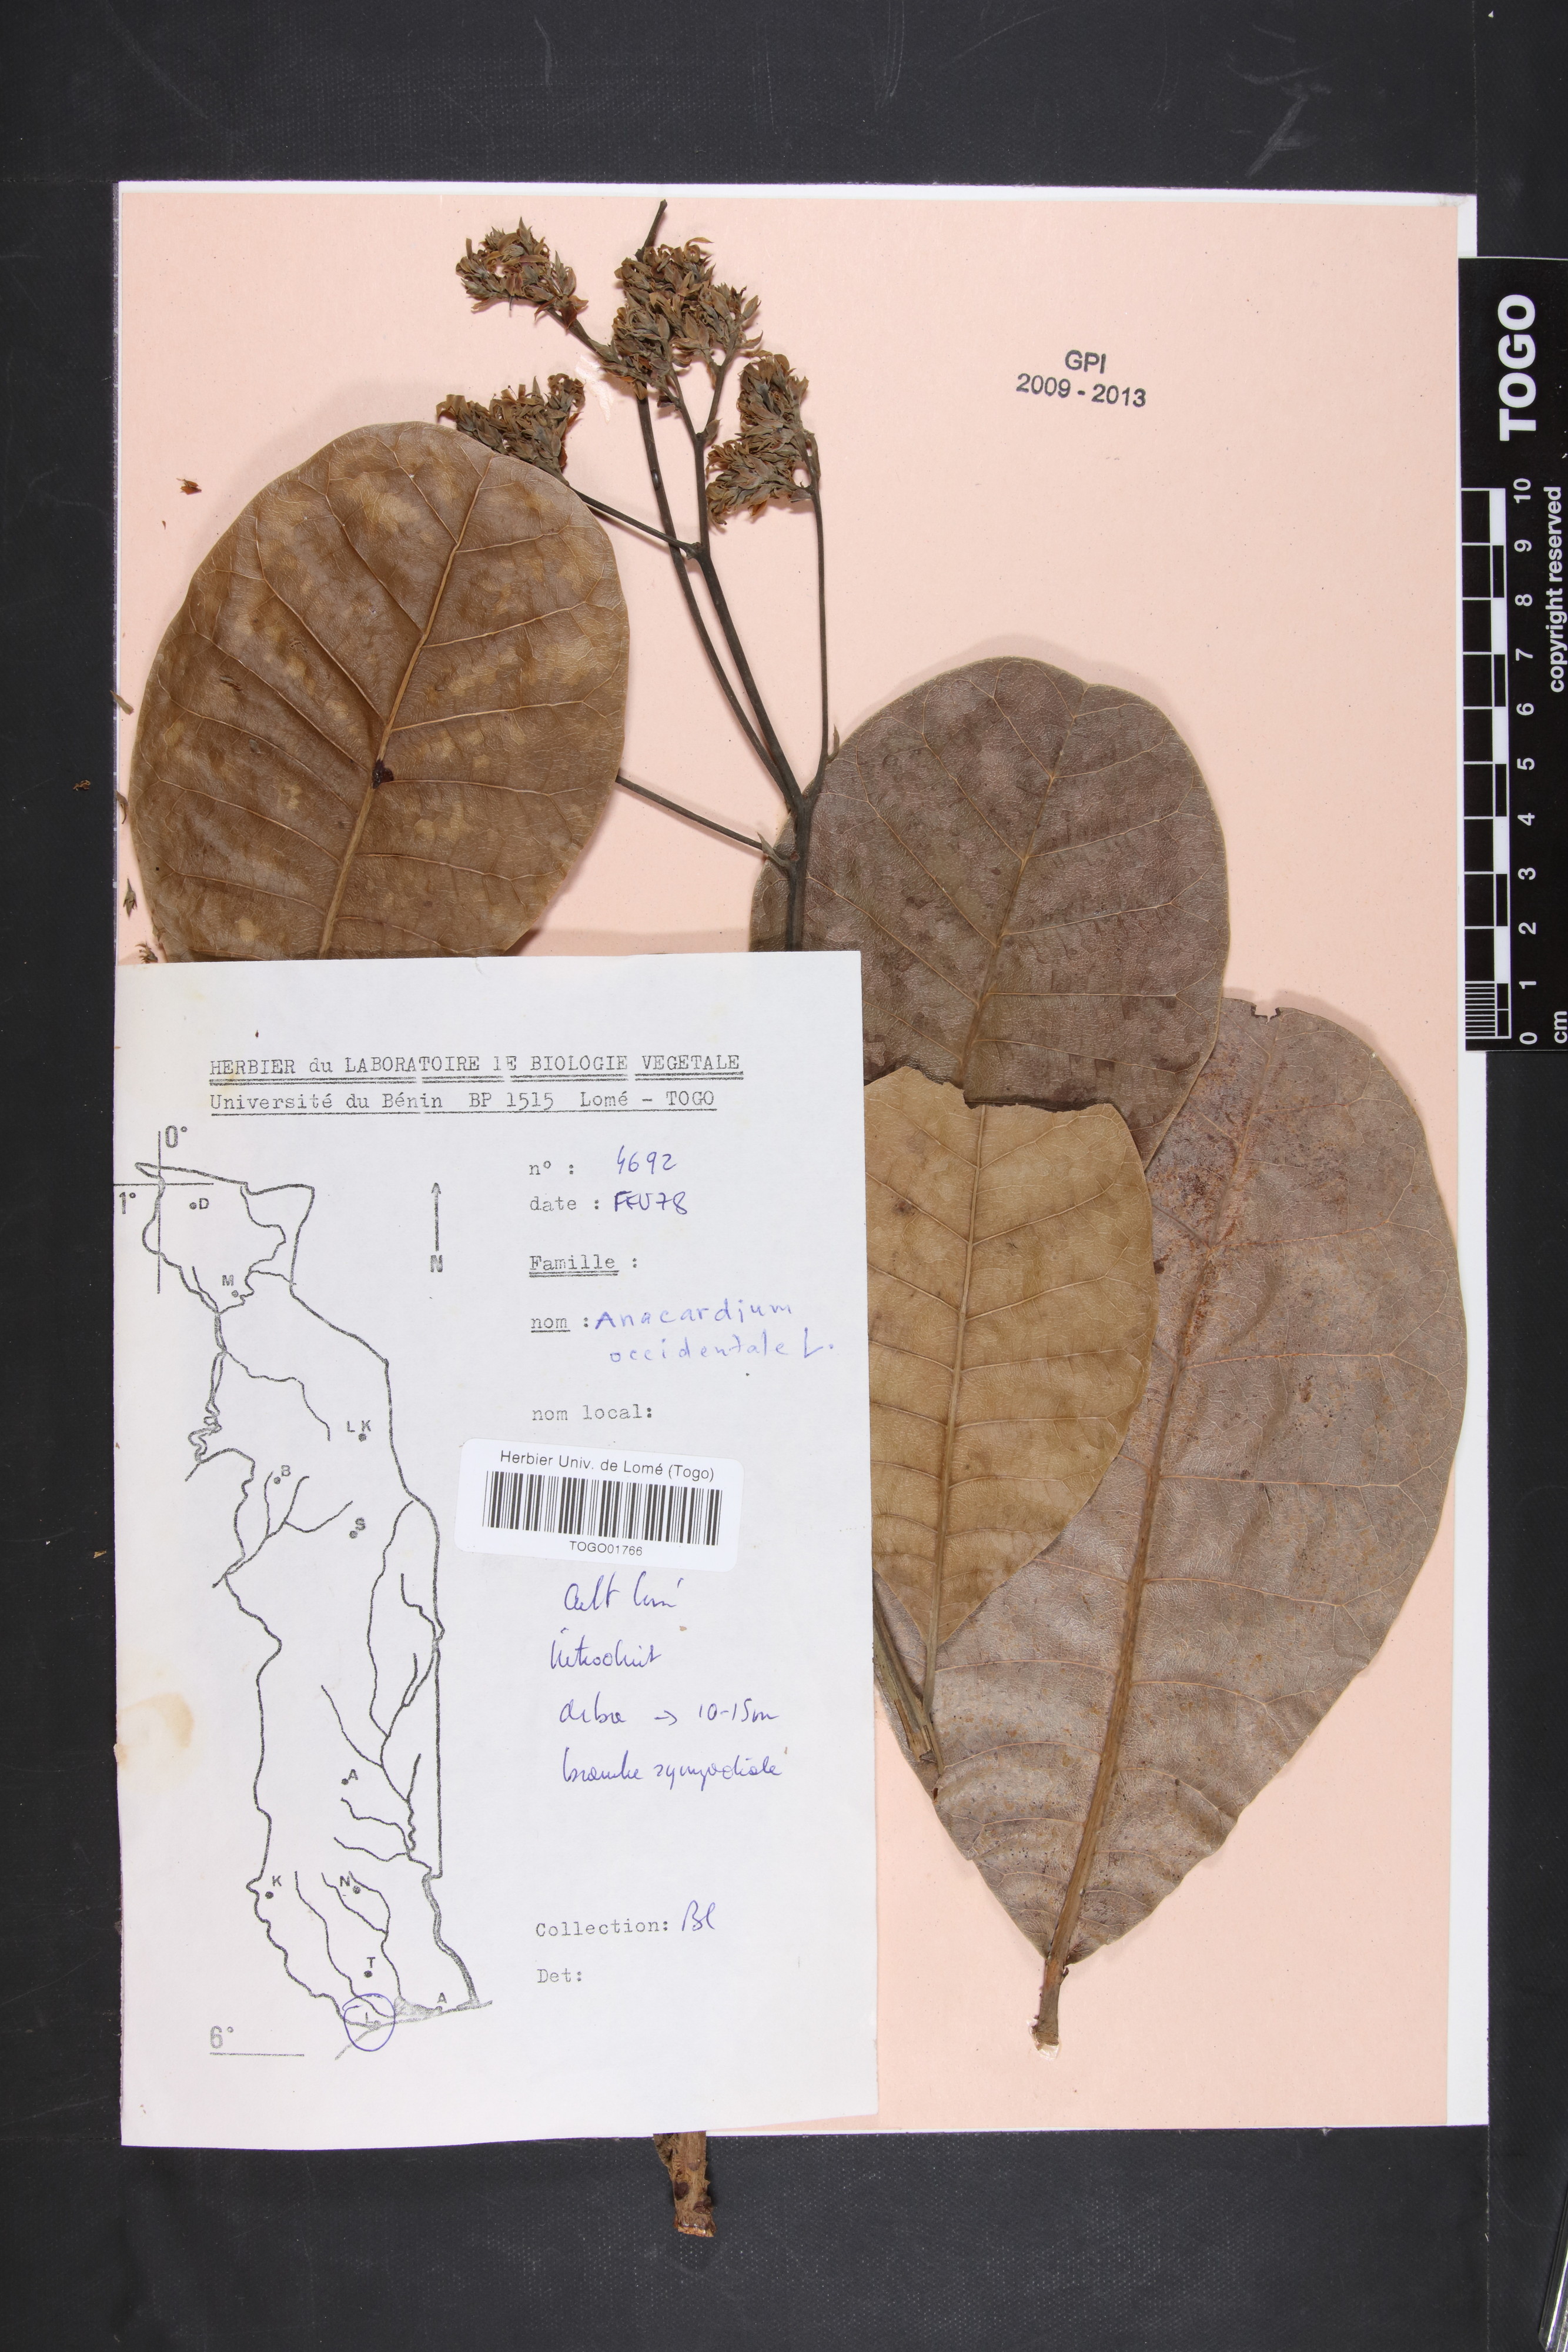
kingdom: Plantae
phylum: Tracheophyta
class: Magnoliopsida
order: Sapindales
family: Anacardiaceae
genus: Anacardium
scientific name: Anacardium occidentale
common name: Cashew
